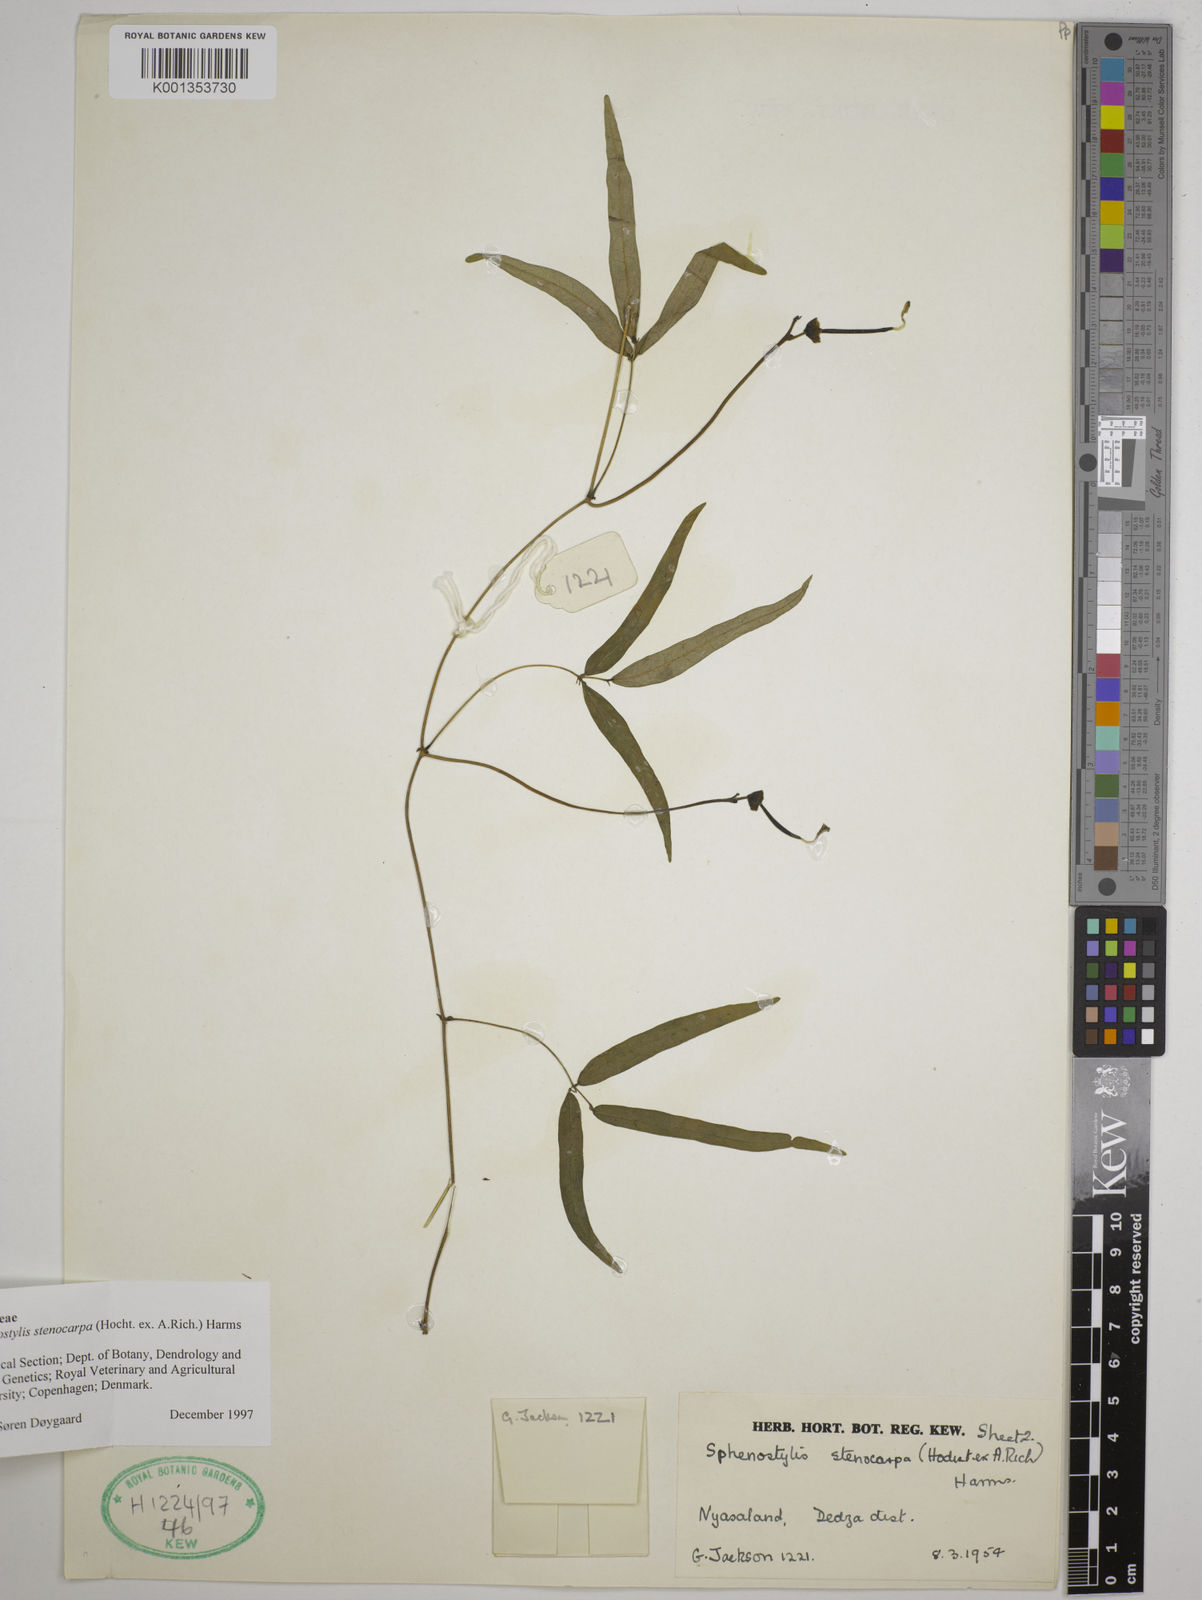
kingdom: Plantae
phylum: Tracheophyta
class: Magnoliopsida
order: Fabales
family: Fabaceae
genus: Sphenostylis
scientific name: Sphenostylis stenocarpa
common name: Yam-pea
